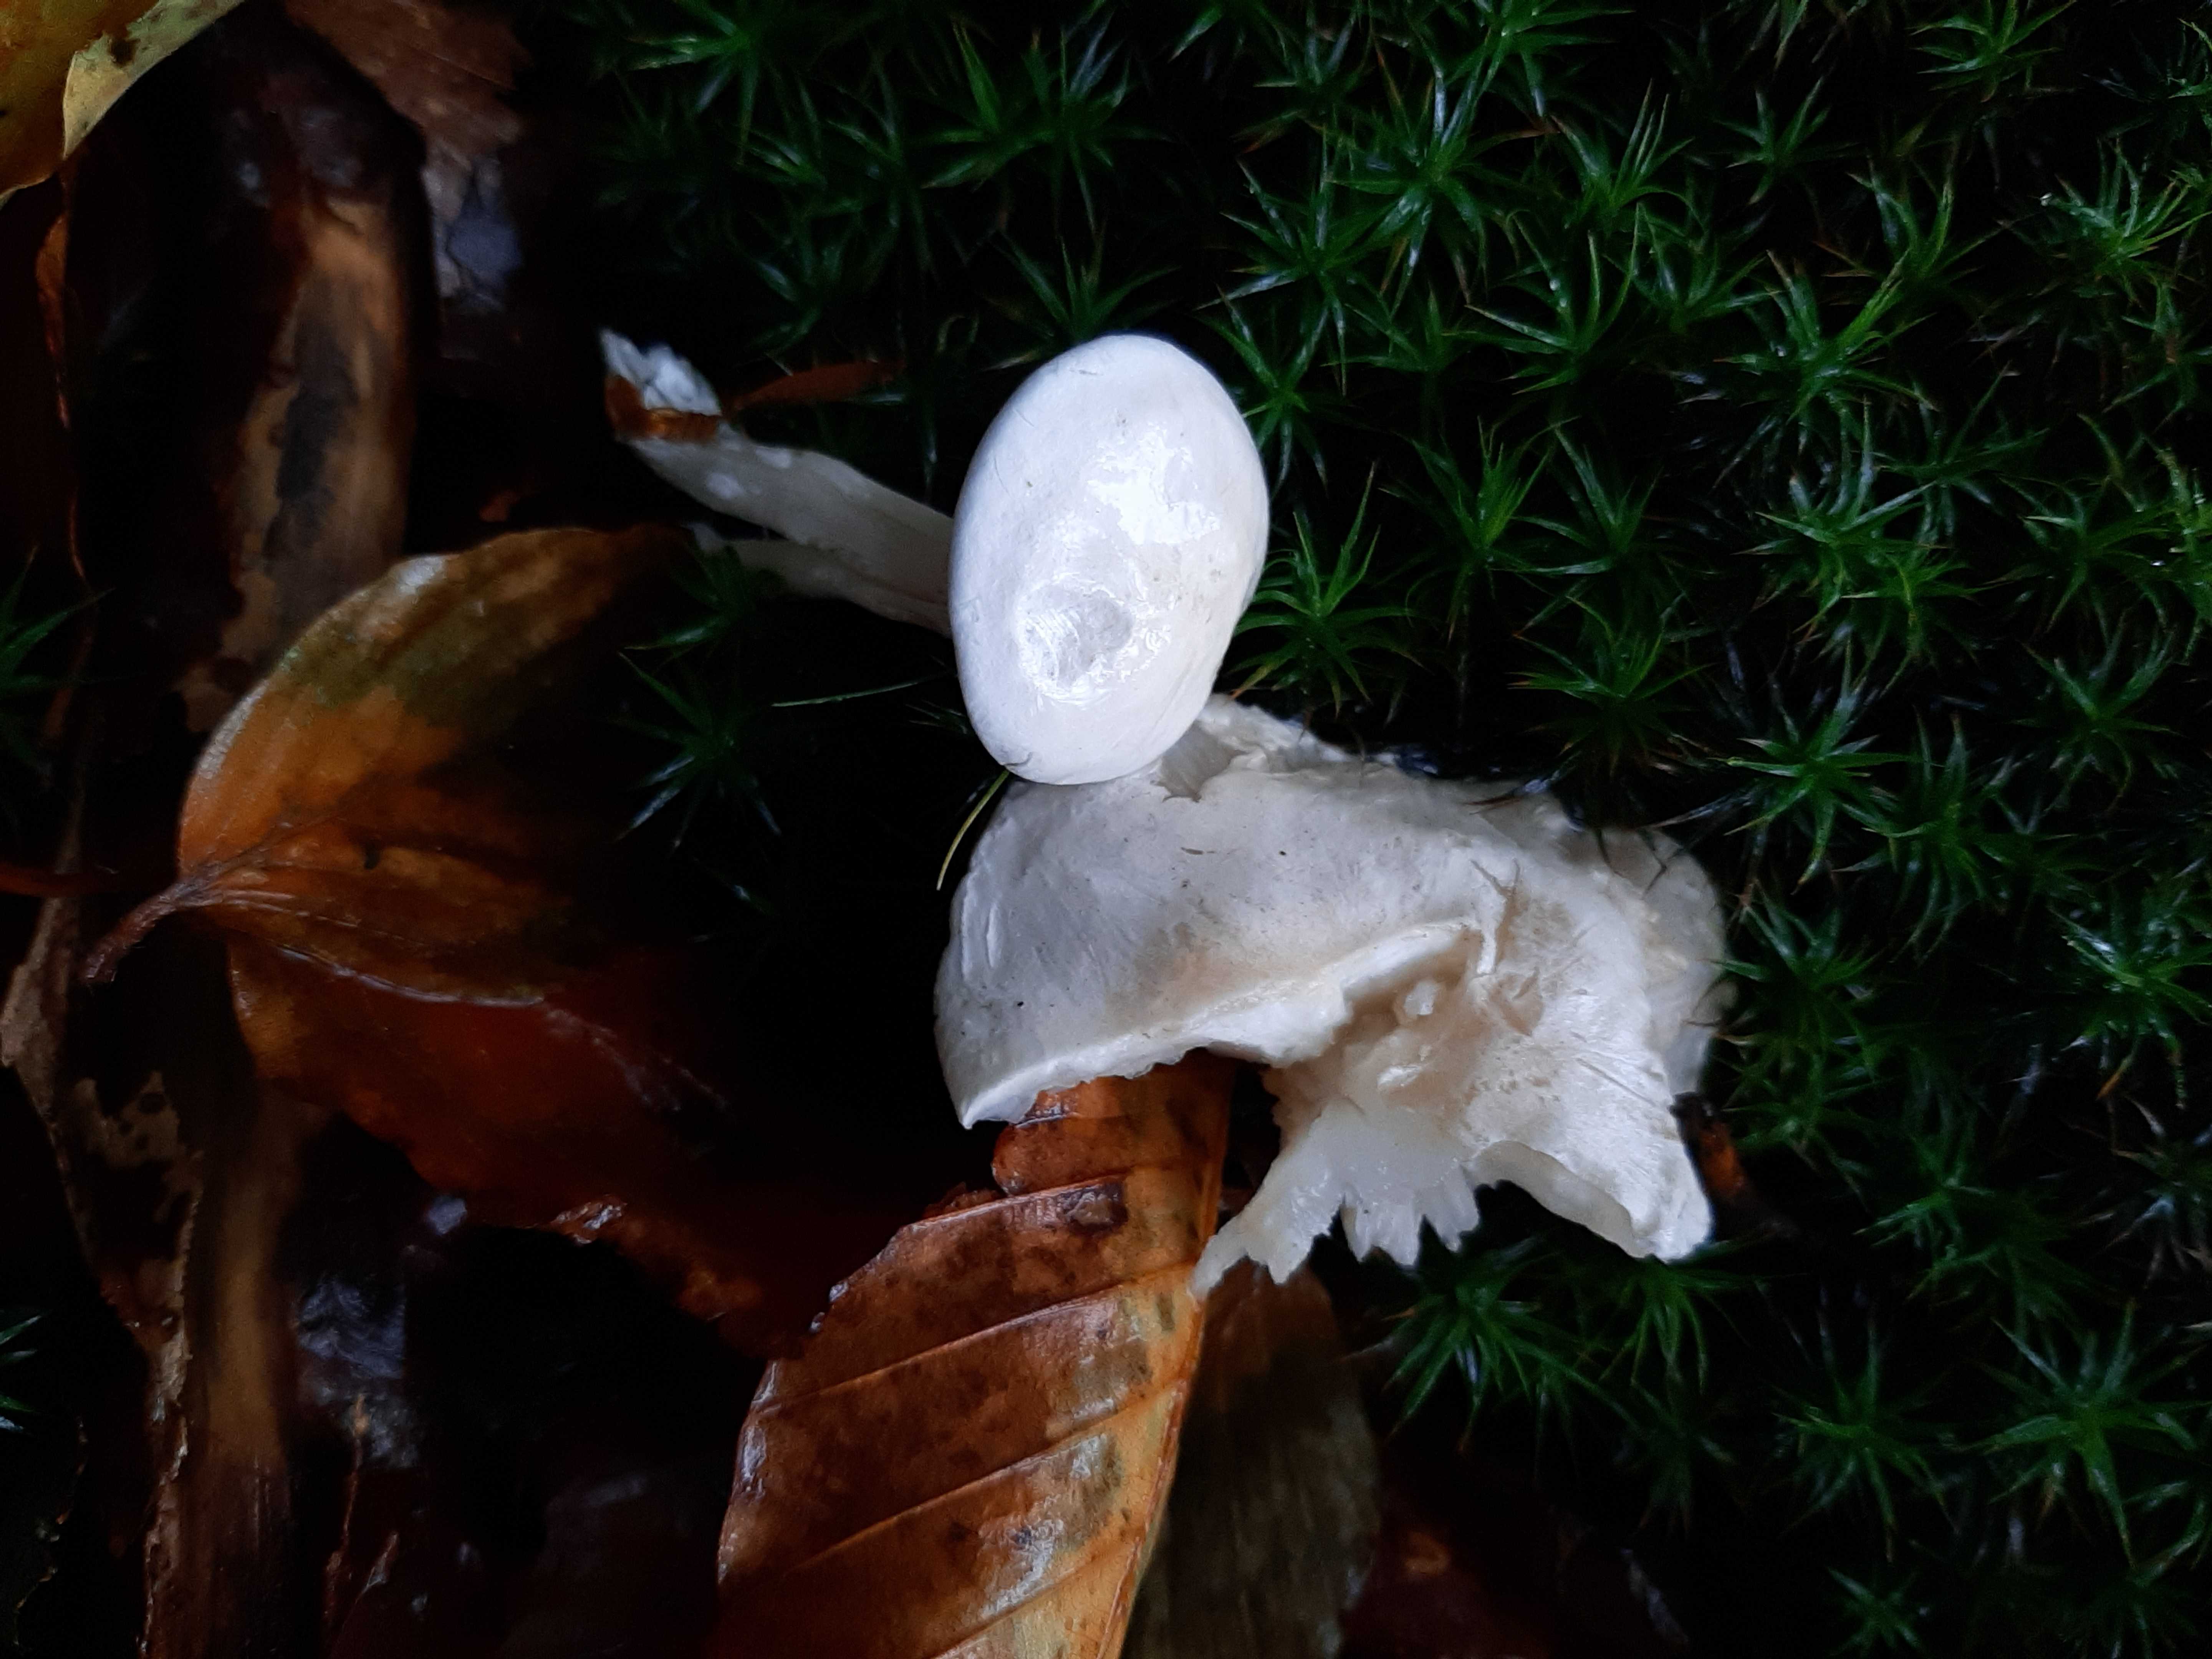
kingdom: Fungi
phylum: Basidiomycota
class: Agaricomycetes
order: Agaricales
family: Hygrophoraceae
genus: Hygrophorus
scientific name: Hygrophorus eburneus
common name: elfenbens-sneglehat
